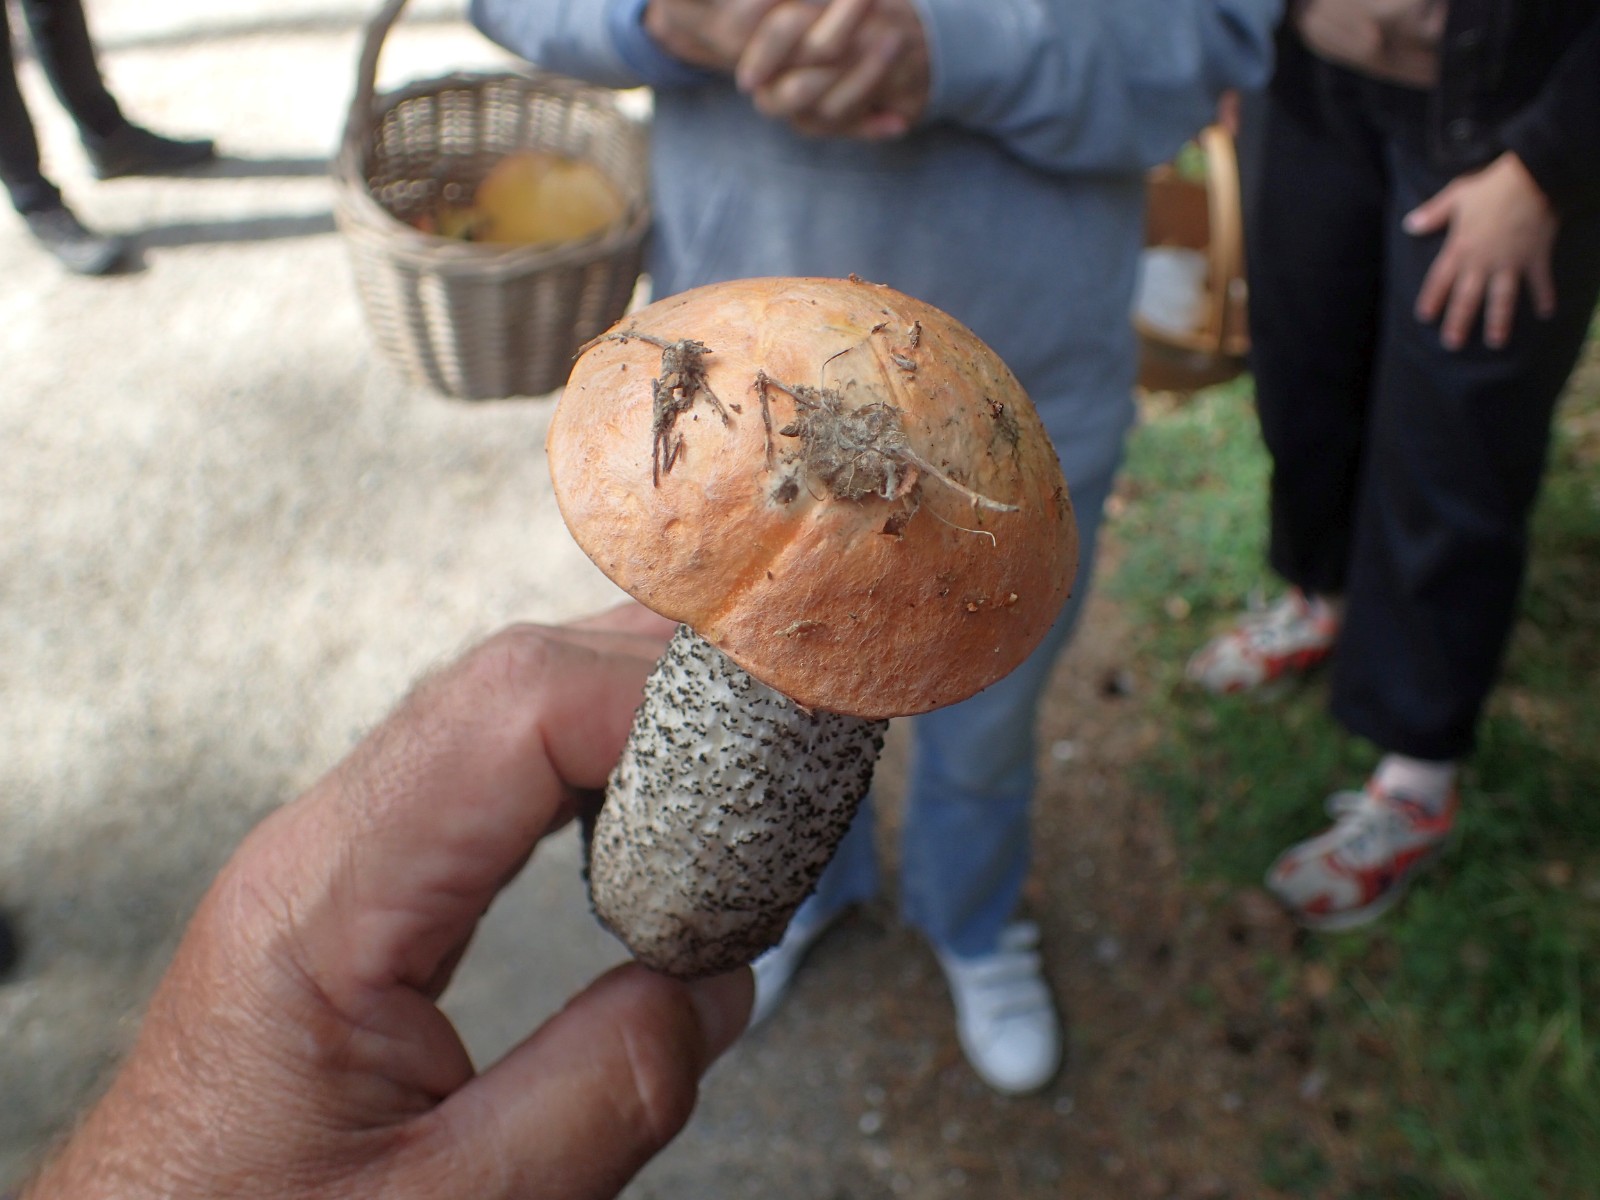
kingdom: Fungi
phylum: Basidiomycota
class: Agaricomycetes
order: Boletales
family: Boletaceae
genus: Leccinum
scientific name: Leccinum versipelle
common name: orange skælrørhat
